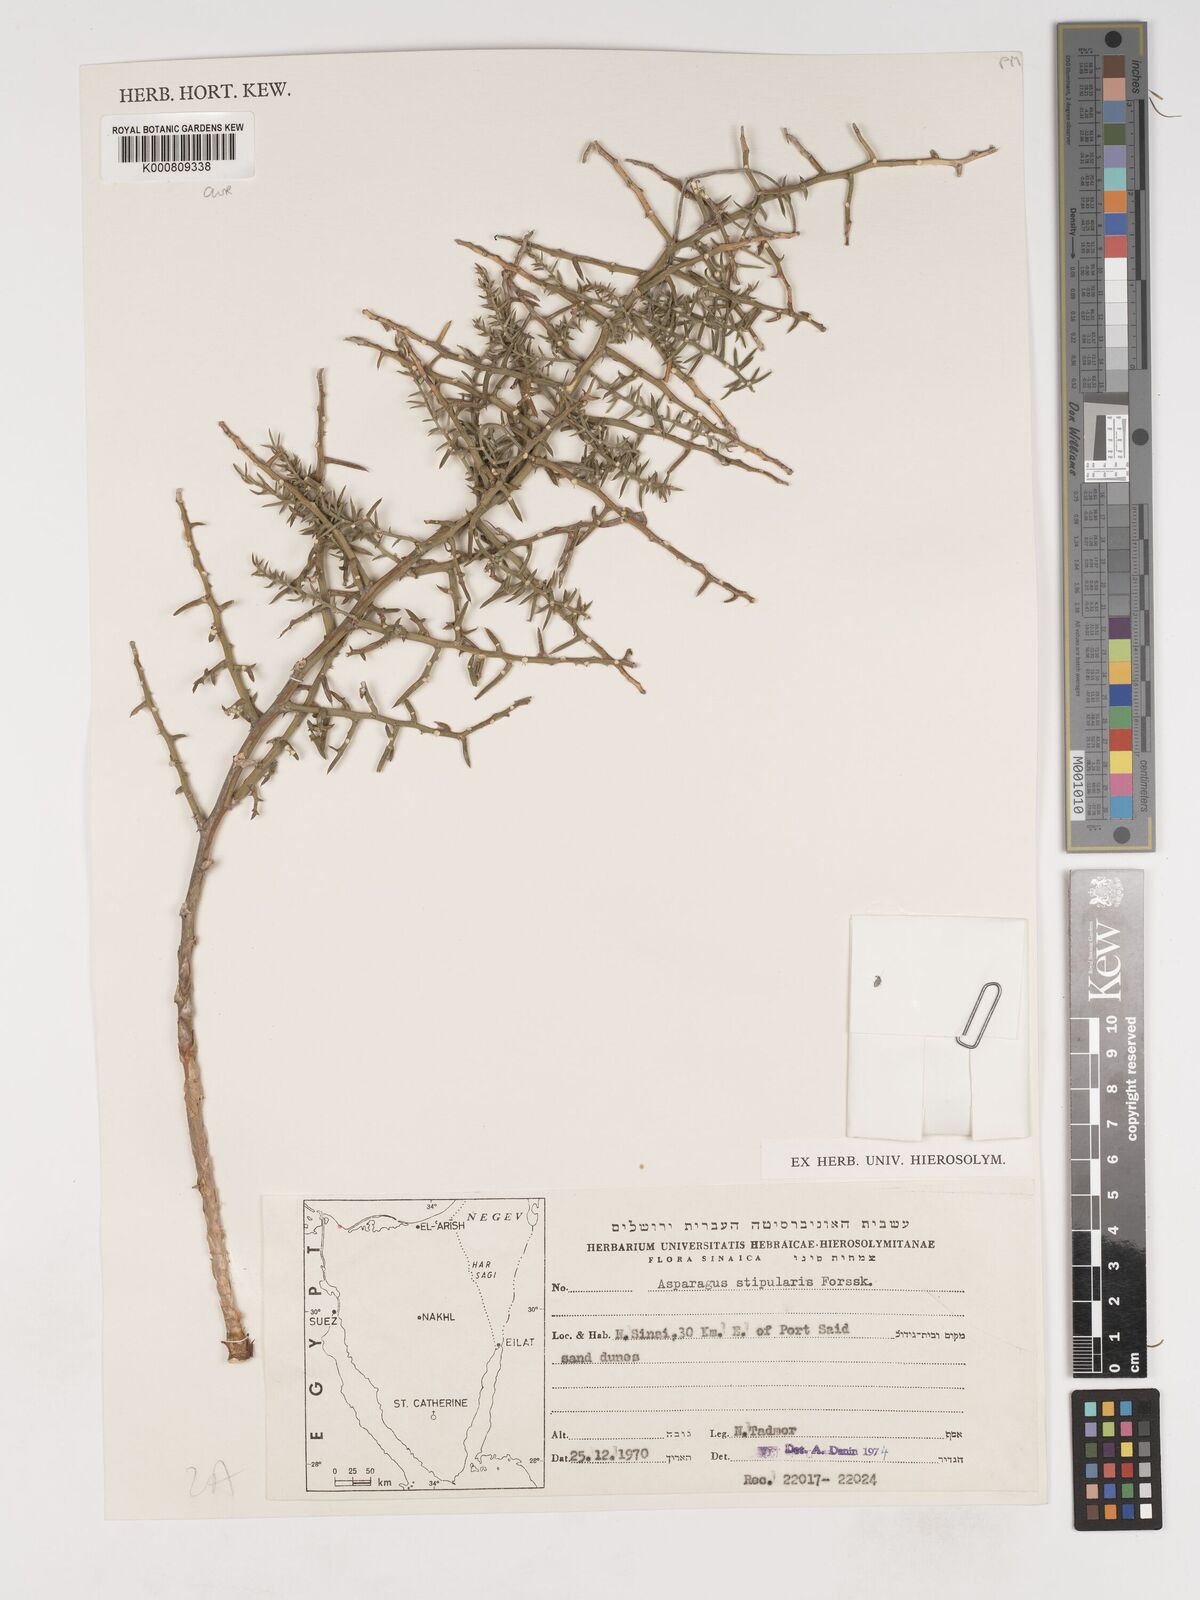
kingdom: Plantae
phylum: Tracheophyta
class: Liliopsida
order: Asparagales
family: Asparagaceae
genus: Asparagus
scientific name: Asparagus horridus
